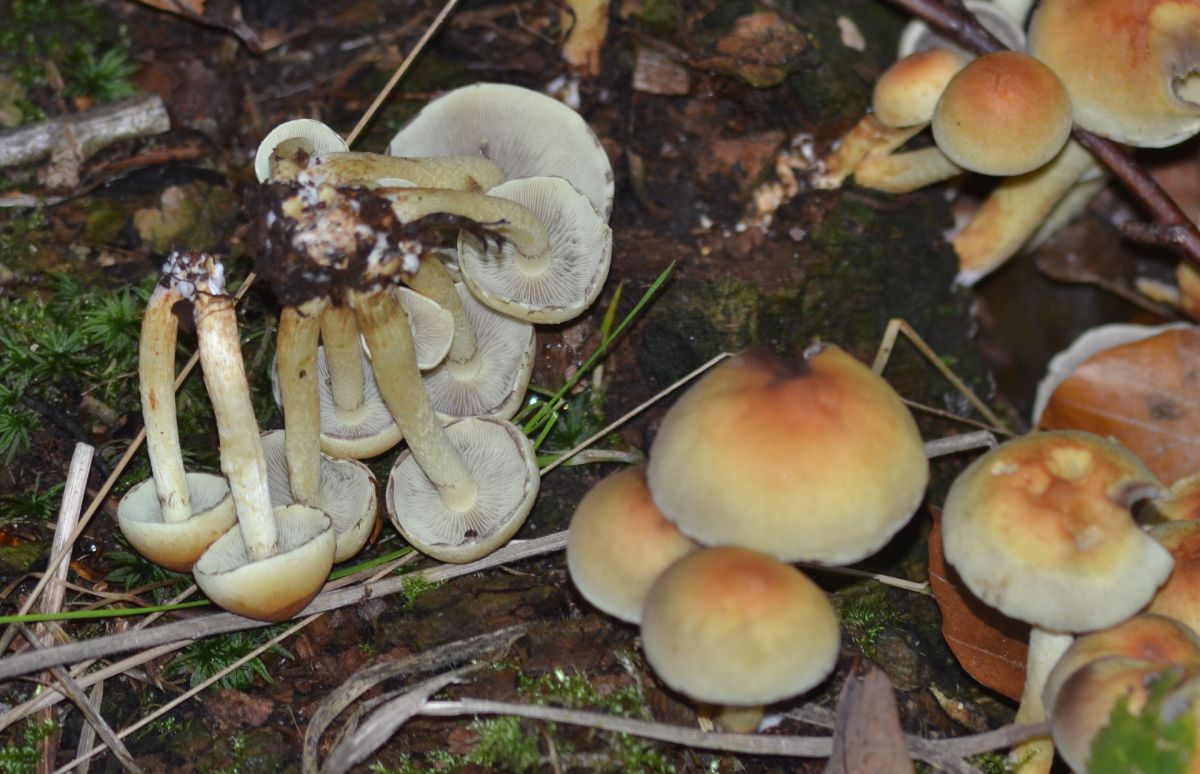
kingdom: Fungi
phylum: Basidiomycota
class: Agaricomycetes
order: Agaricales
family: Strophariaceae
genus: Hypholoma
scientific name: Hypholoma fasciculare
